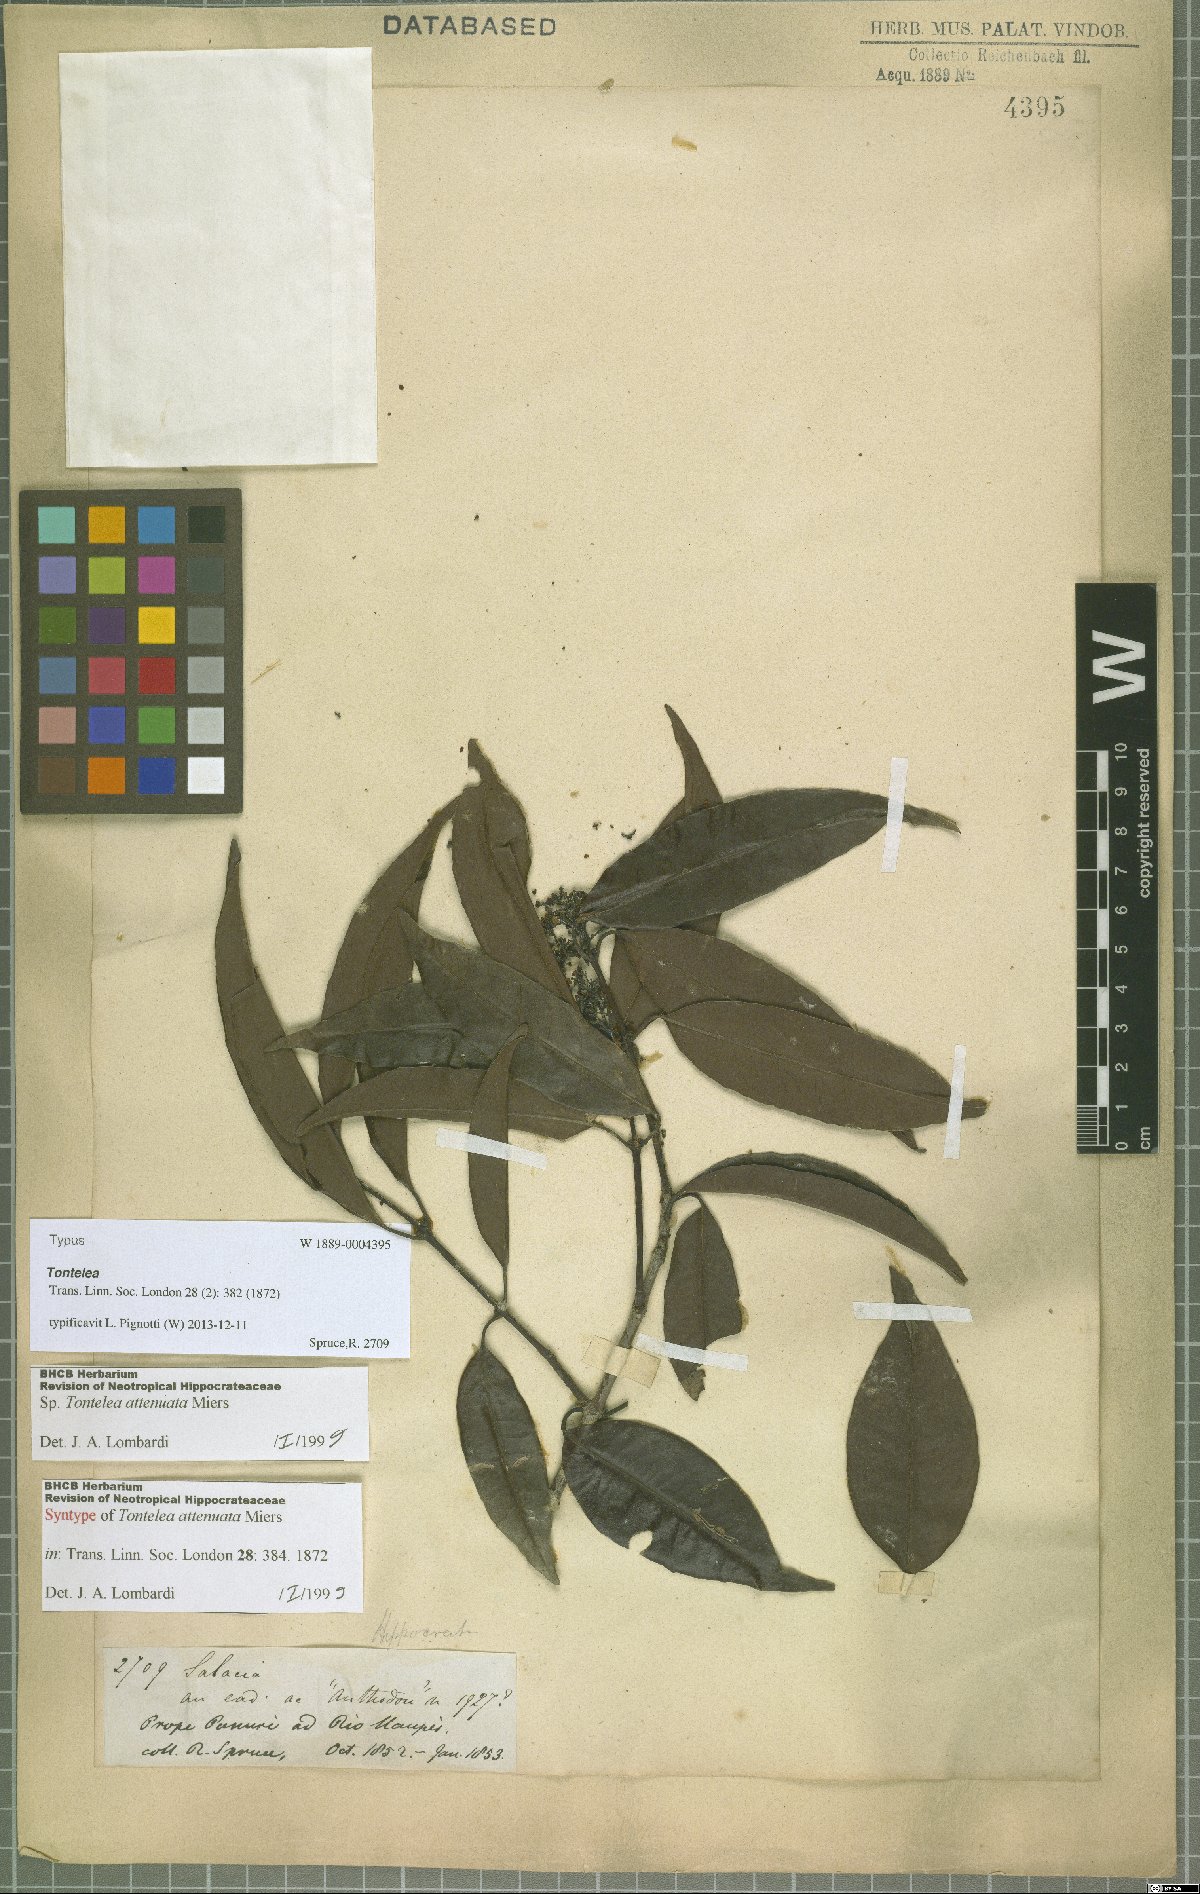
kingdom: Plantae
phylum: Tracheophyta
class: Magnoliopsida
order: Celastrales
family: Celastraceae
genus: Tontelea
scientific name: Tontelea attenuata
